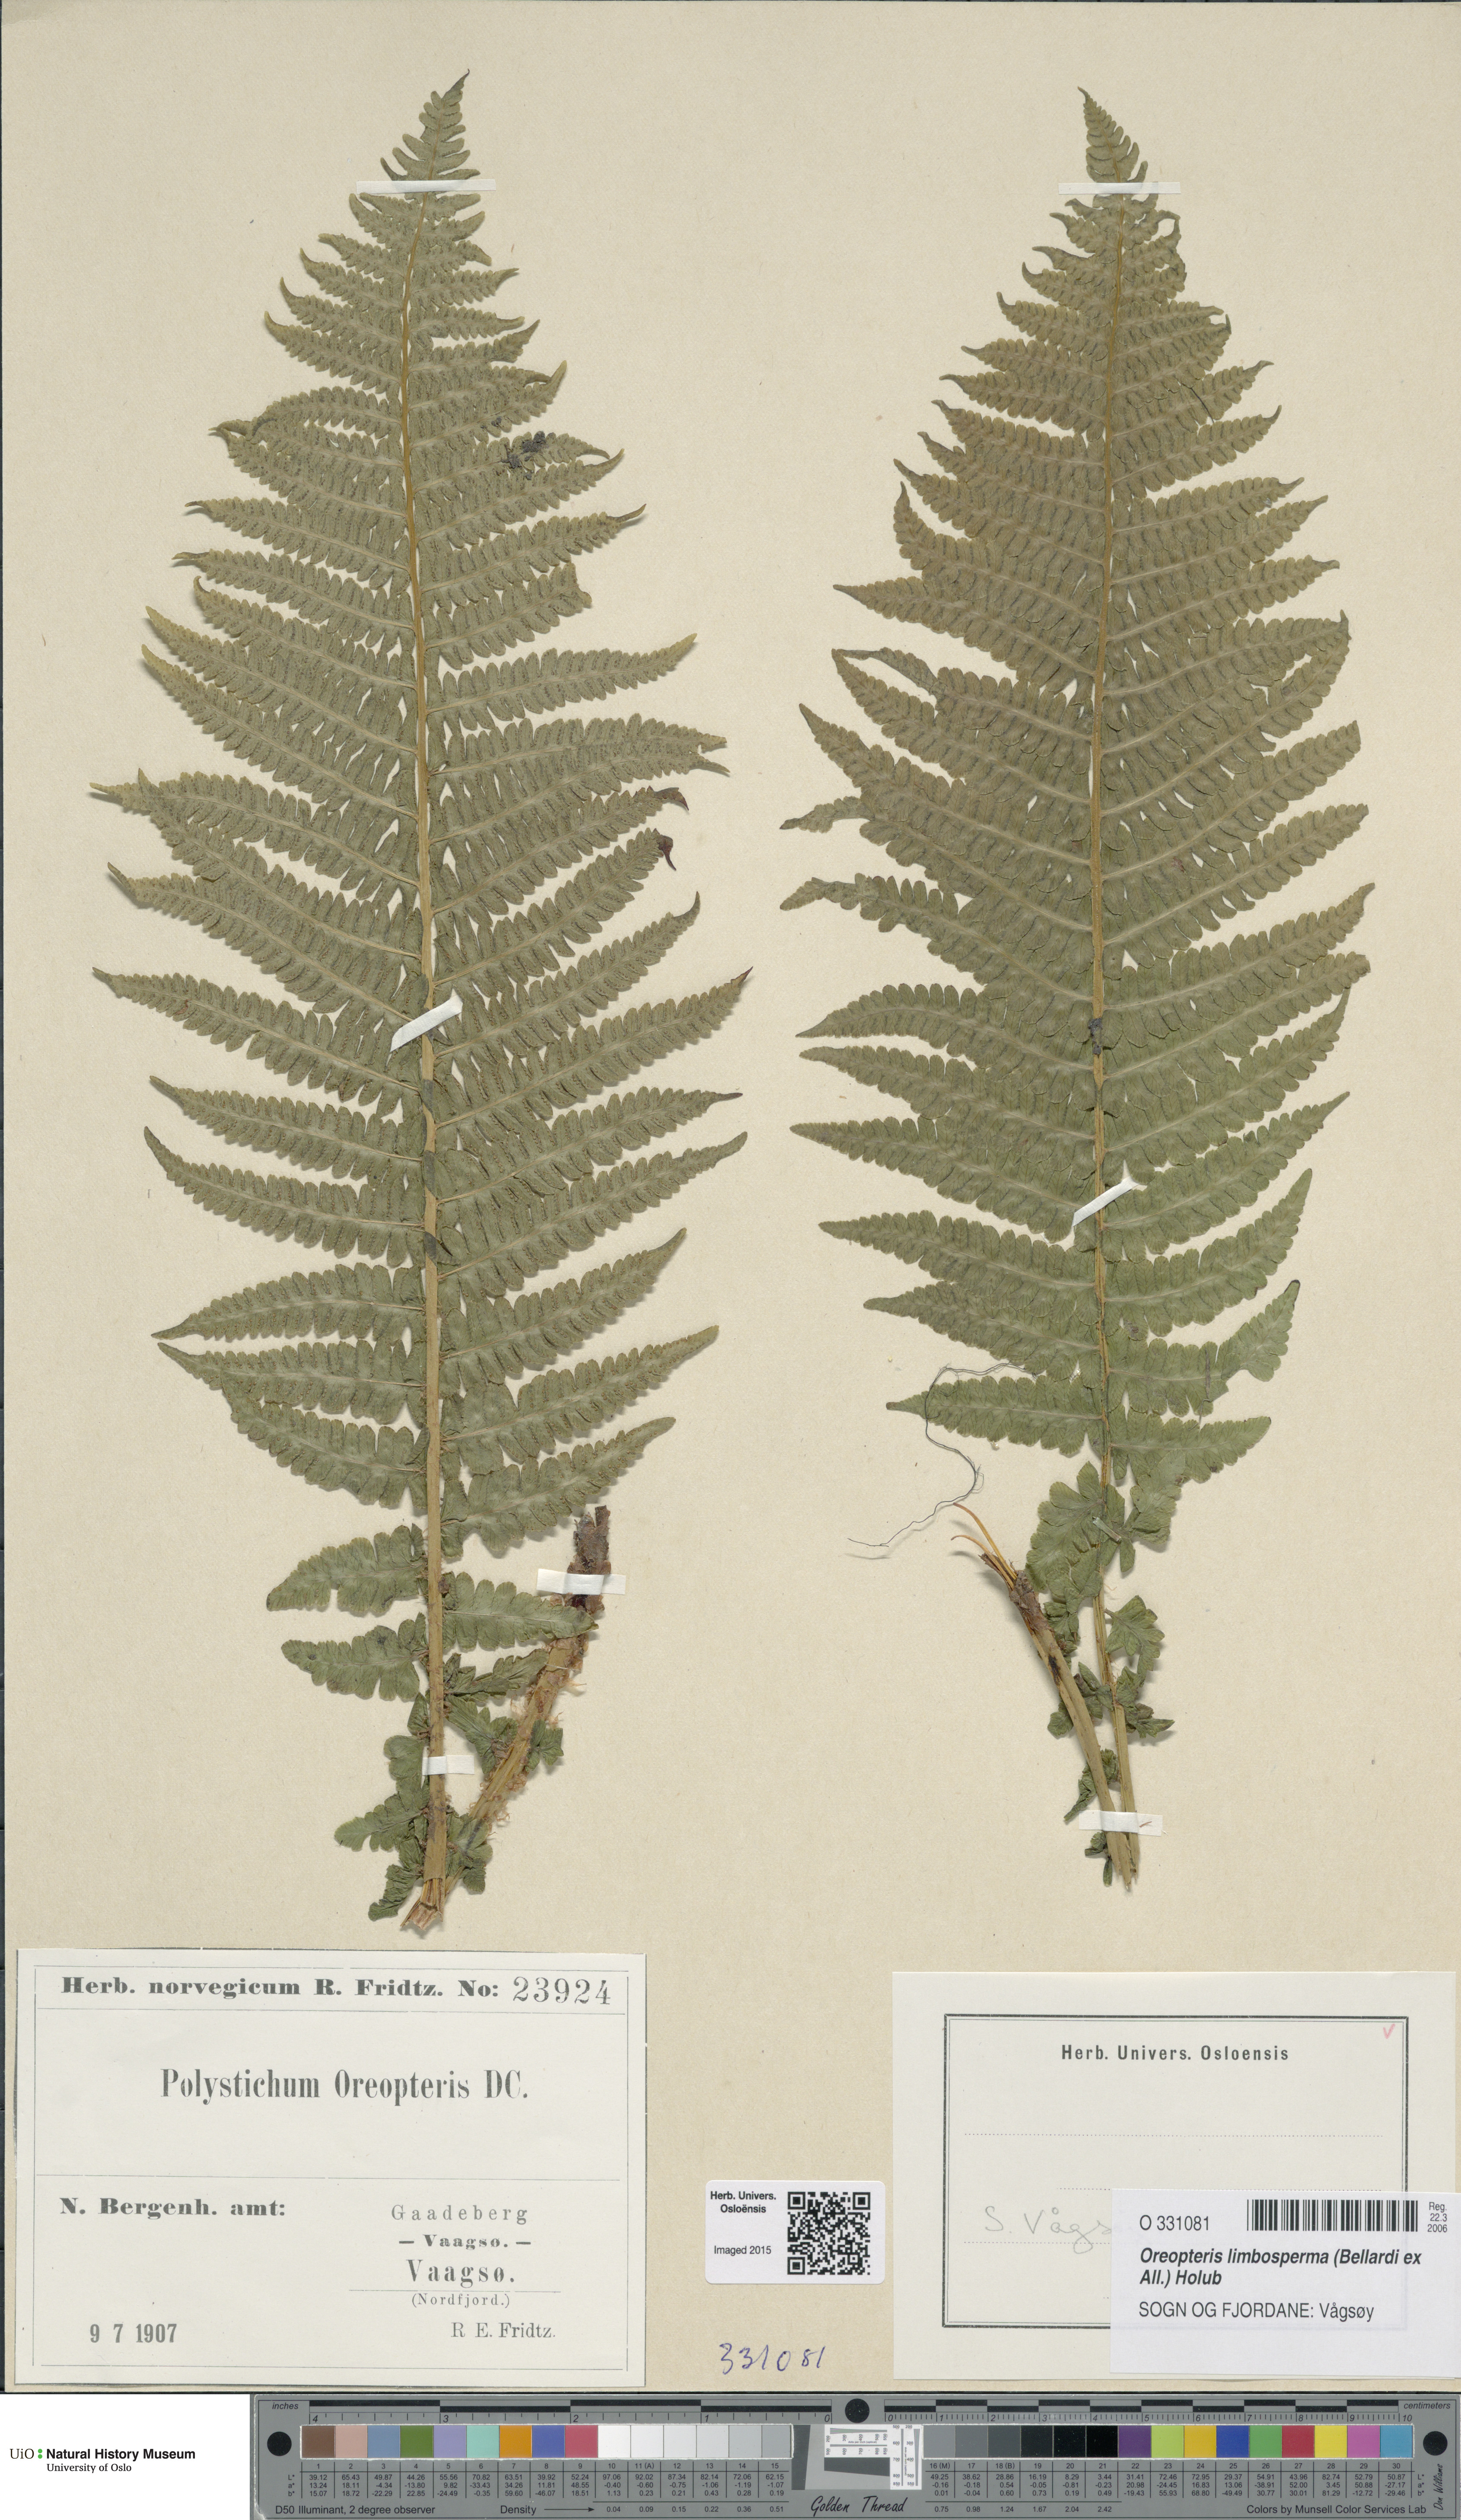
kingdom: Plantae
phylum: Tracheophyta
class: Polypodiopsida
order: Polypodiales
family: Thelypteridaceae
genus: Oreopteris
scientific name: Oreopteris limbosperma
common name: Lemon-scented fern
